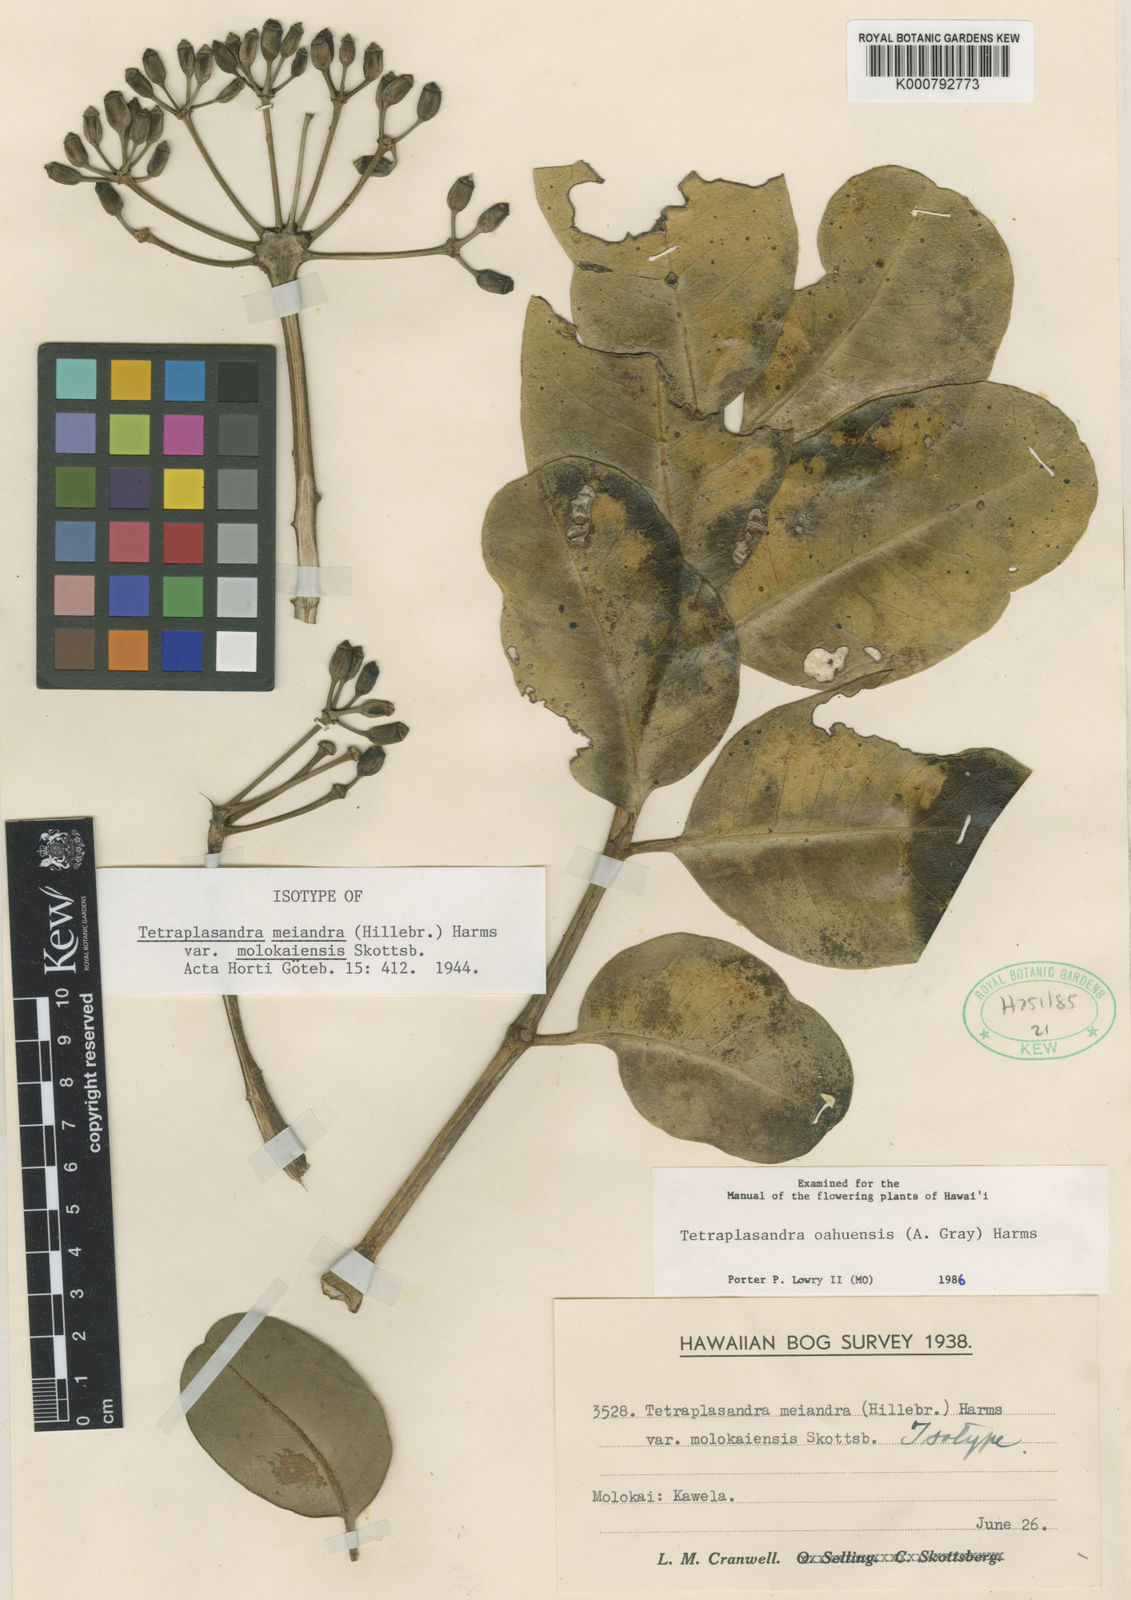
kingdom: Plantae
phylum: Tracheophyta
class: Magnoliopsida
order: Apiales
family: Araliaceae
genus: Polyscias
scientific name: Polyscias oahuensis
